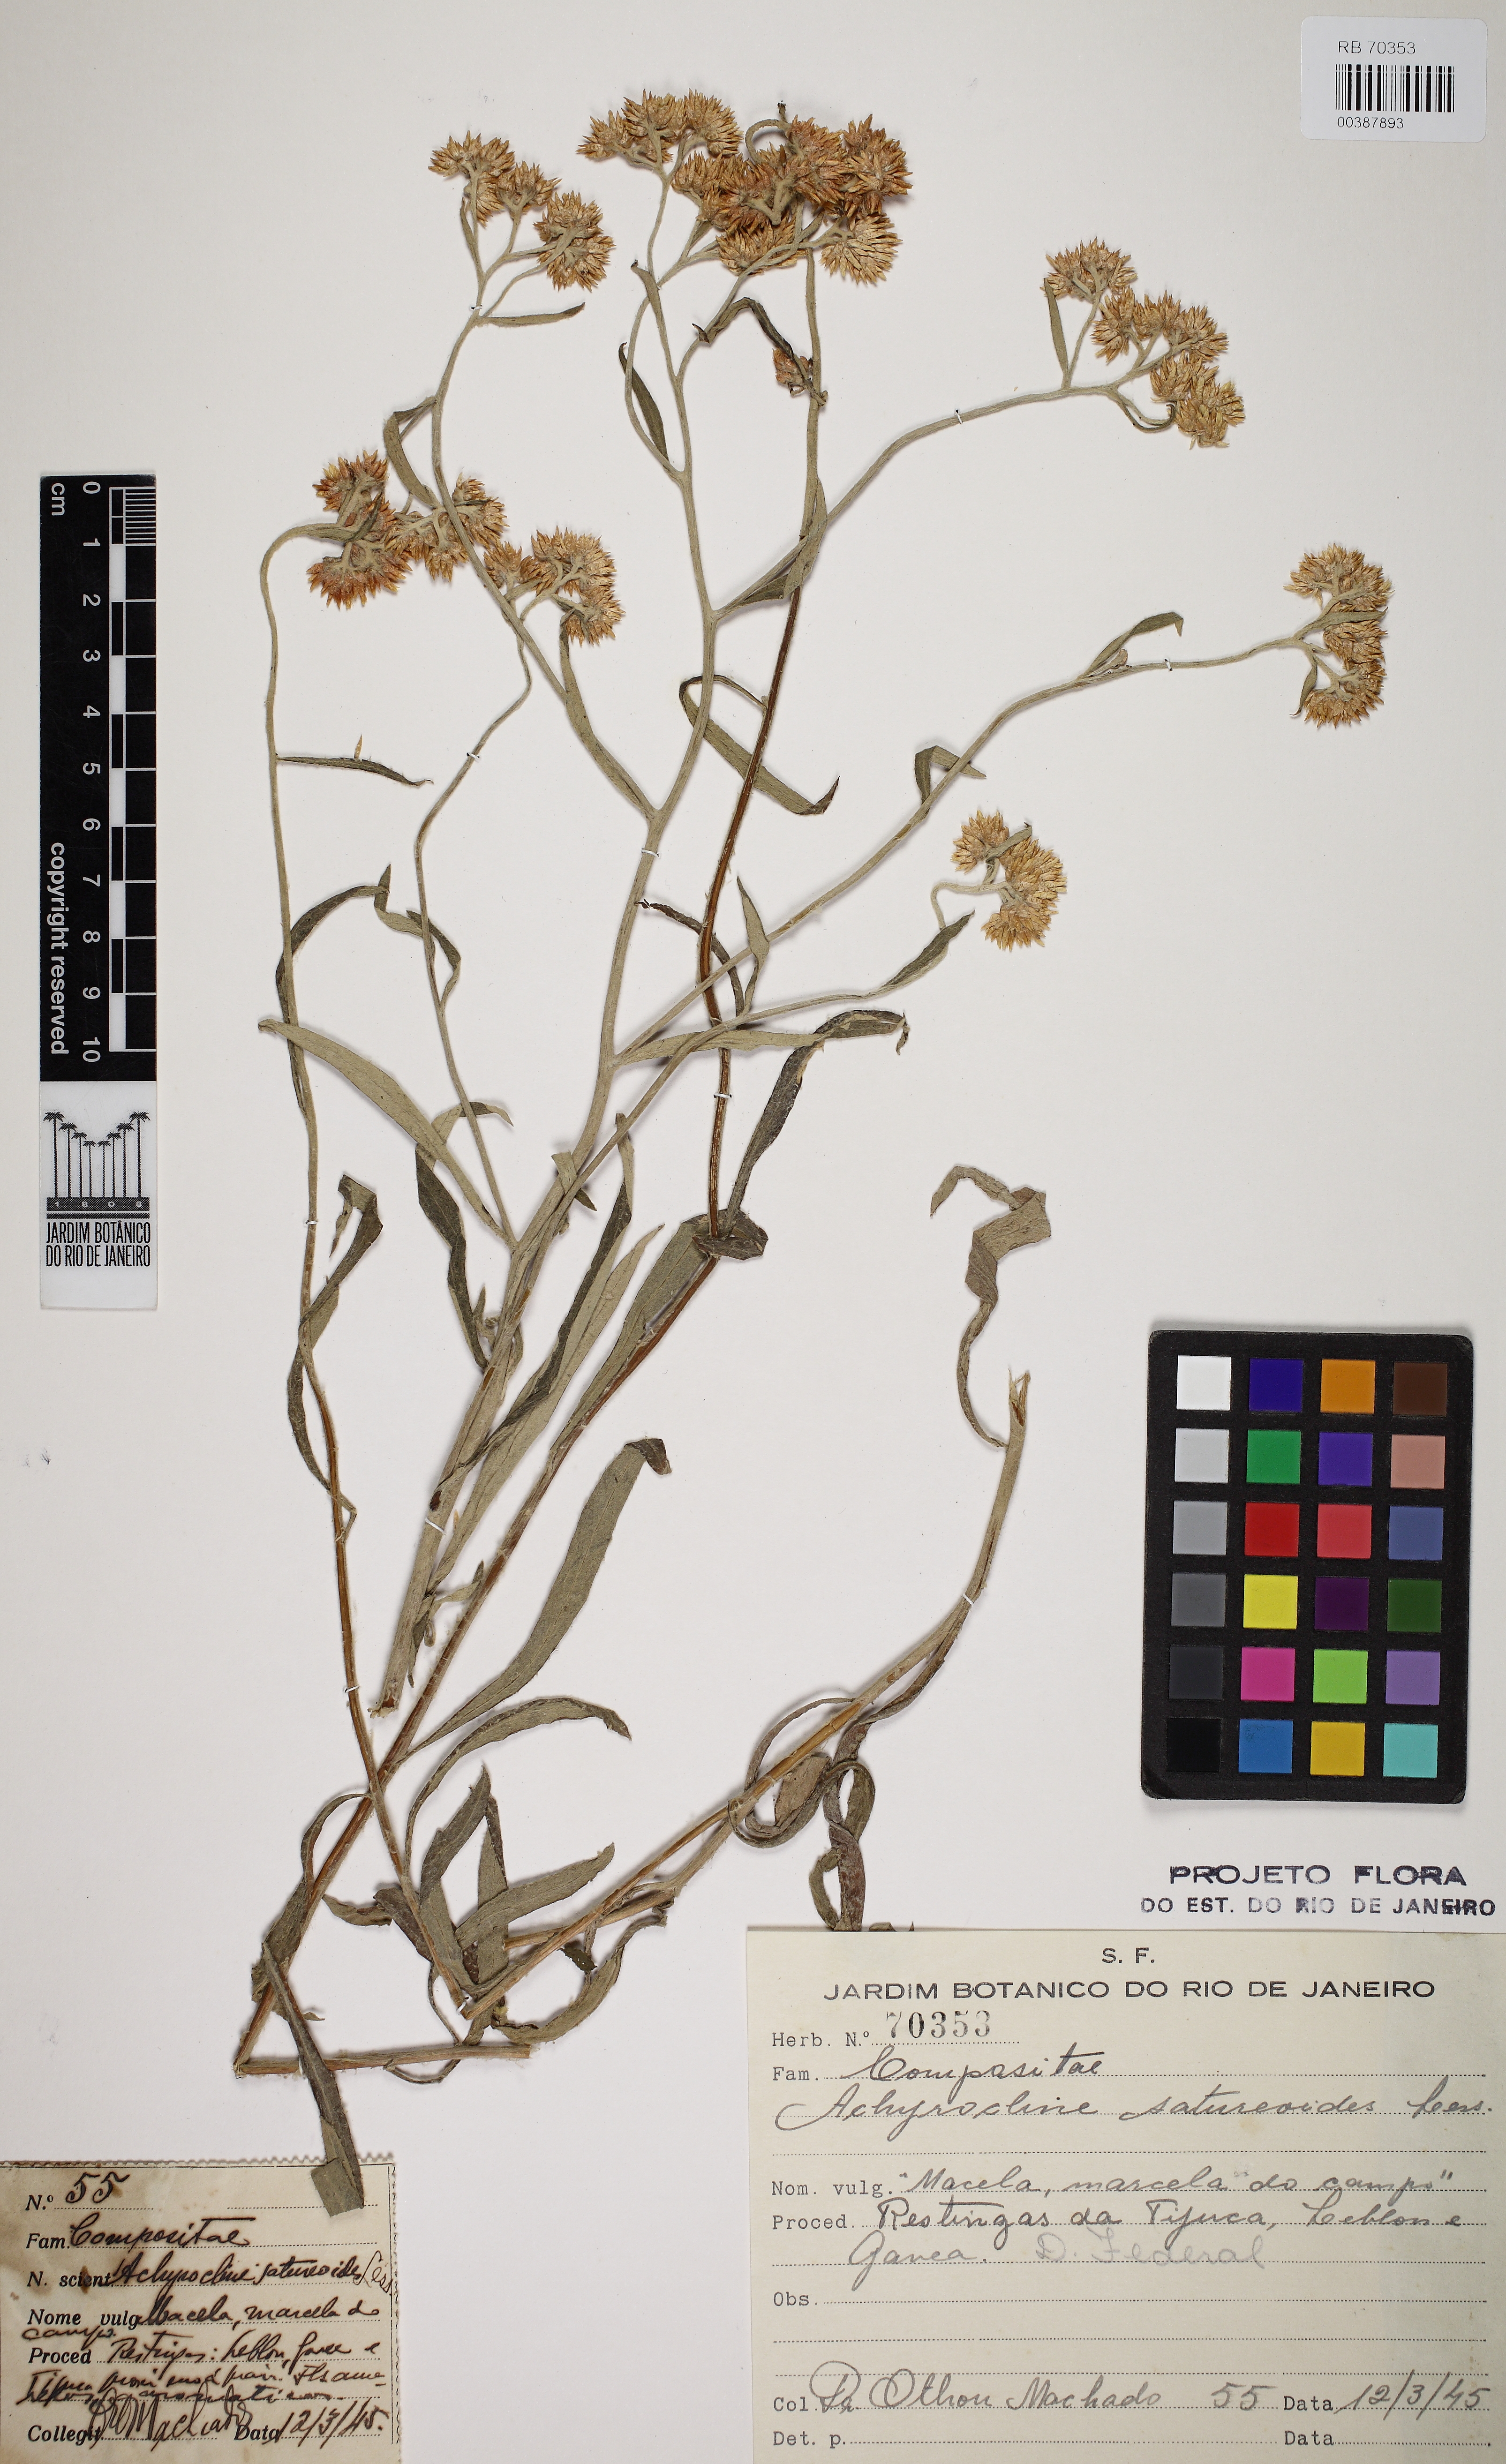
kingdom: Plantae
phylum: Tracheophyta
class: Magnoliopsida
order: Asterales
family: Asteraceae
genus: Achyrocline
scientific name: Achyrocline satureioides
